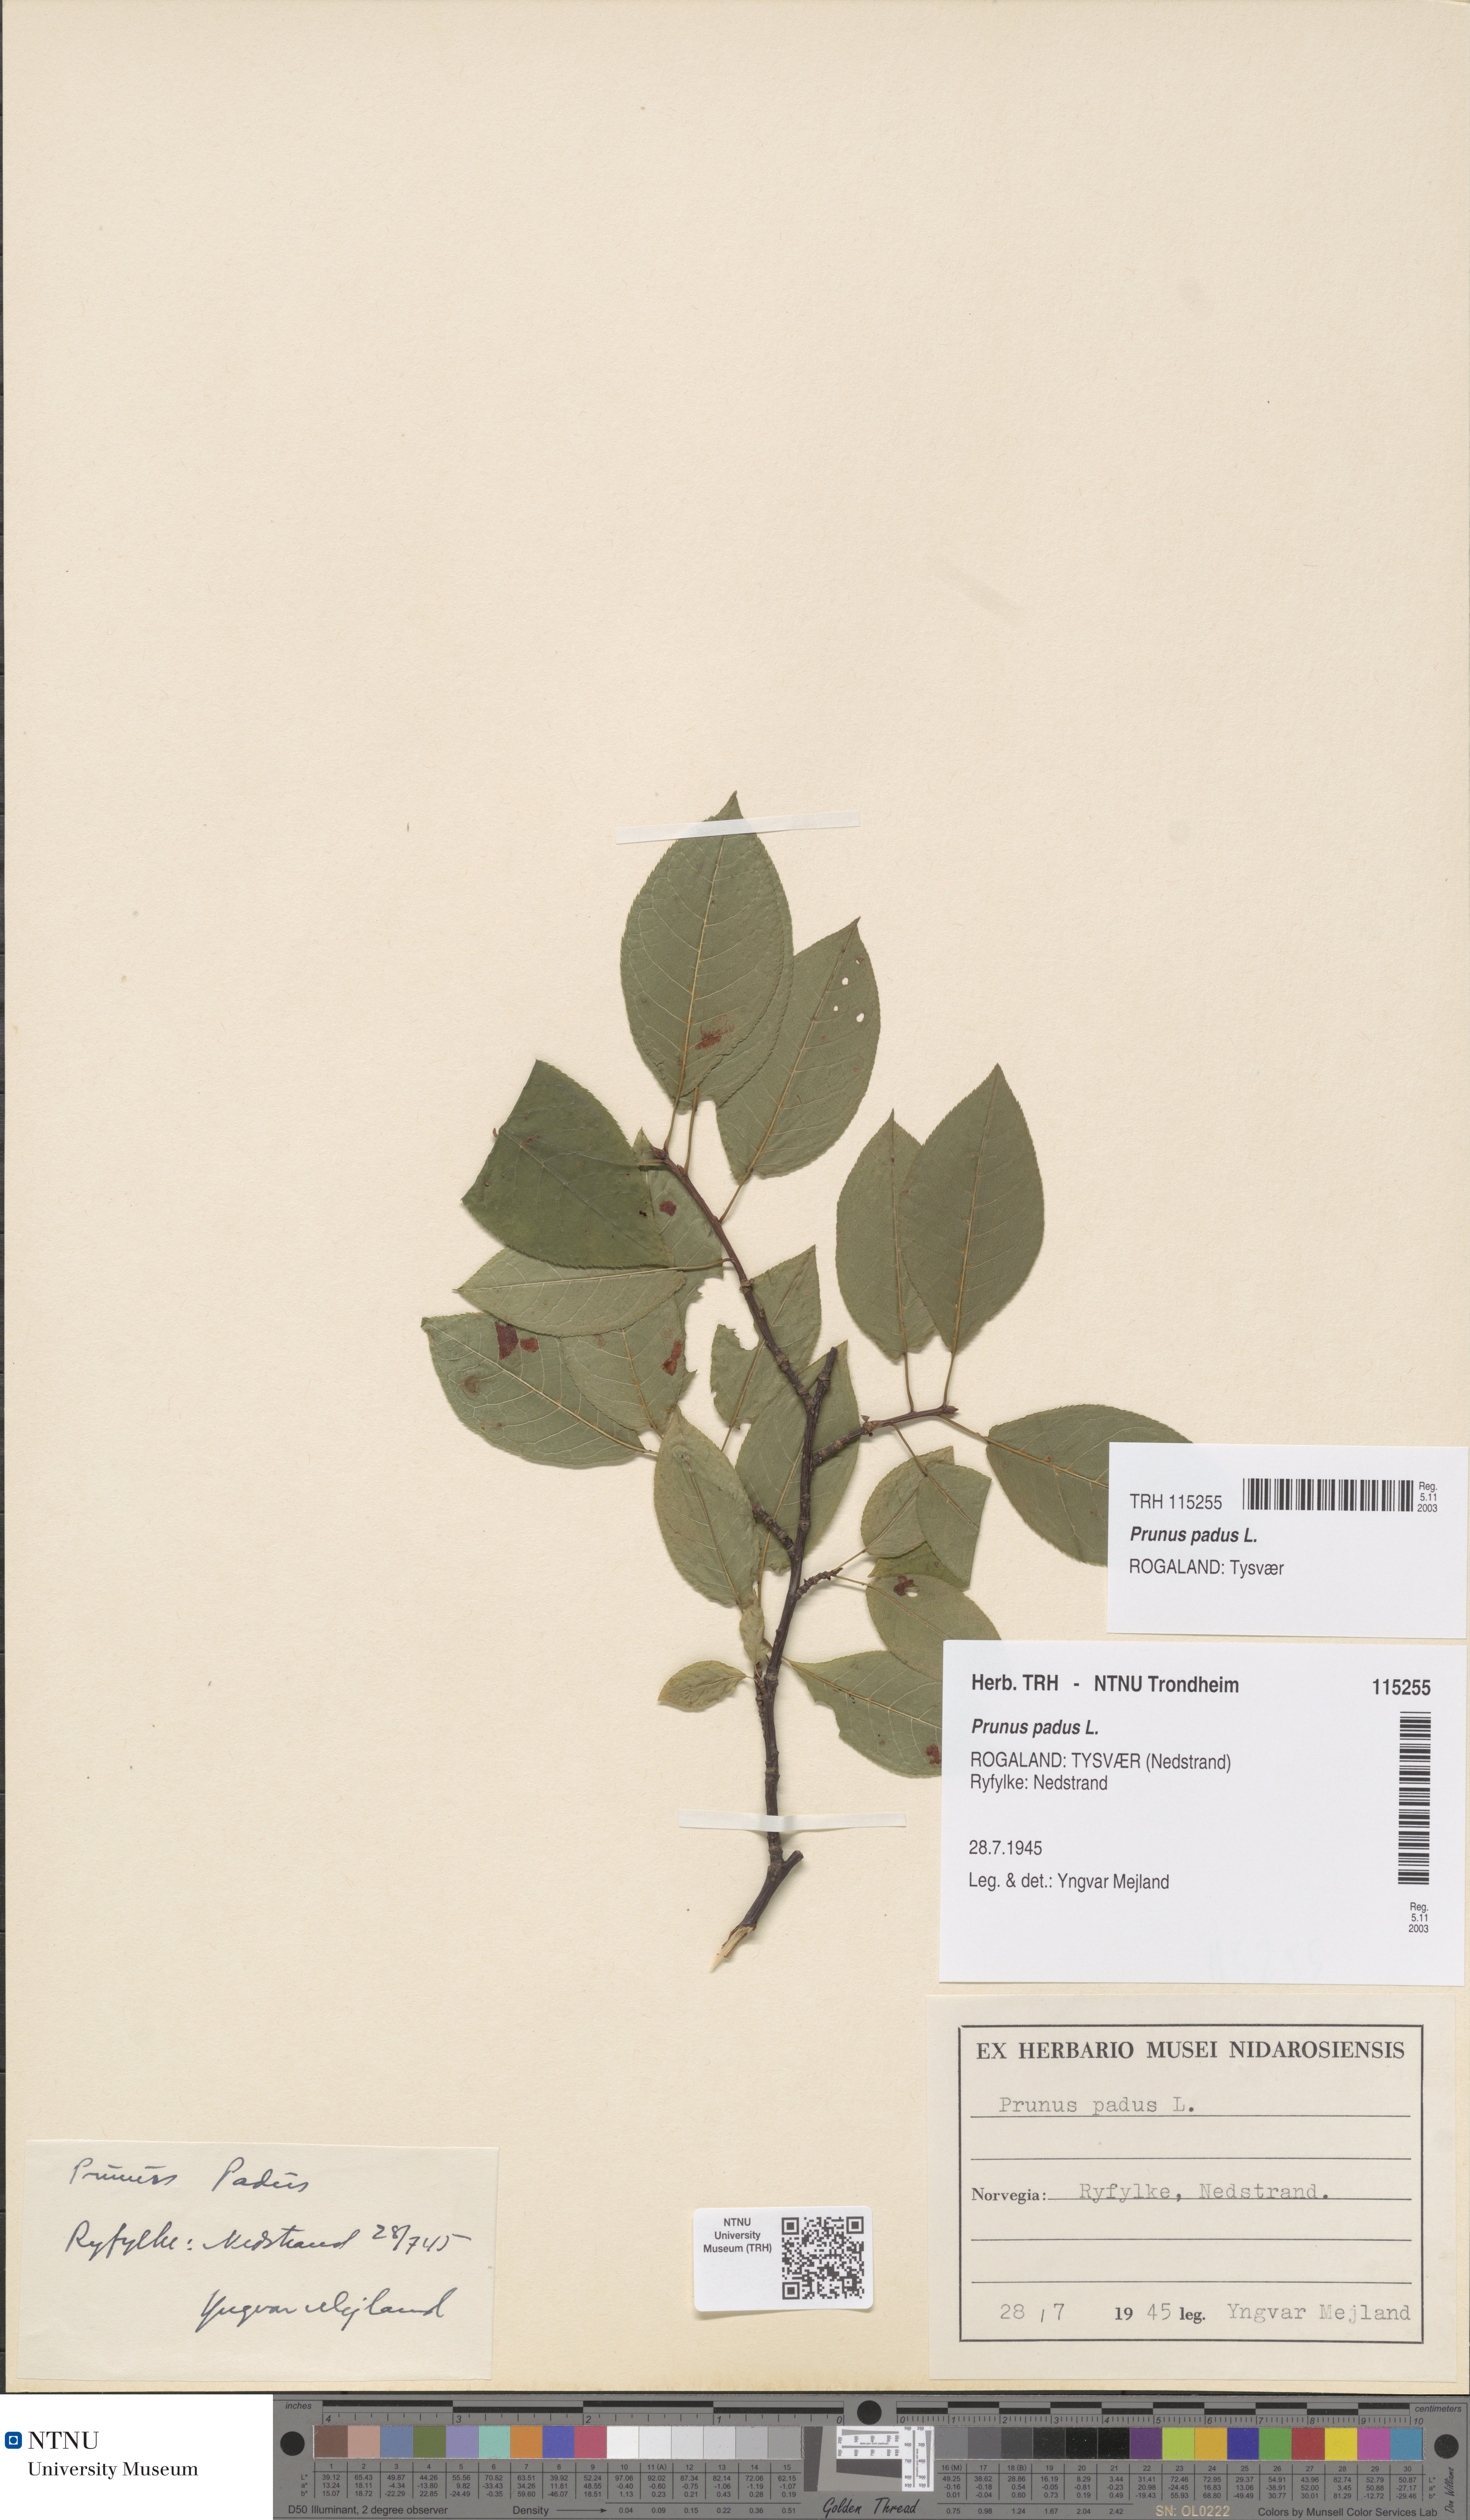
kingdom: Plantae
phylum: Tracheophyta
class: Magnoliopsida
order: Rosales
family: Rosaceae
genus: Prunus
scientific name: Prunus padus
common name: Bird cherry
